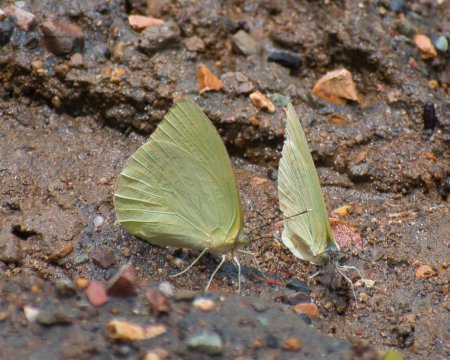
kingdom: Animalia
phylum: Arthropoda
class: Insecta
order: Lepidoptera
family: Pieridae
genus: Aphrissa
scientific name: Aphrissa statira
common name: Statira Sulphur
